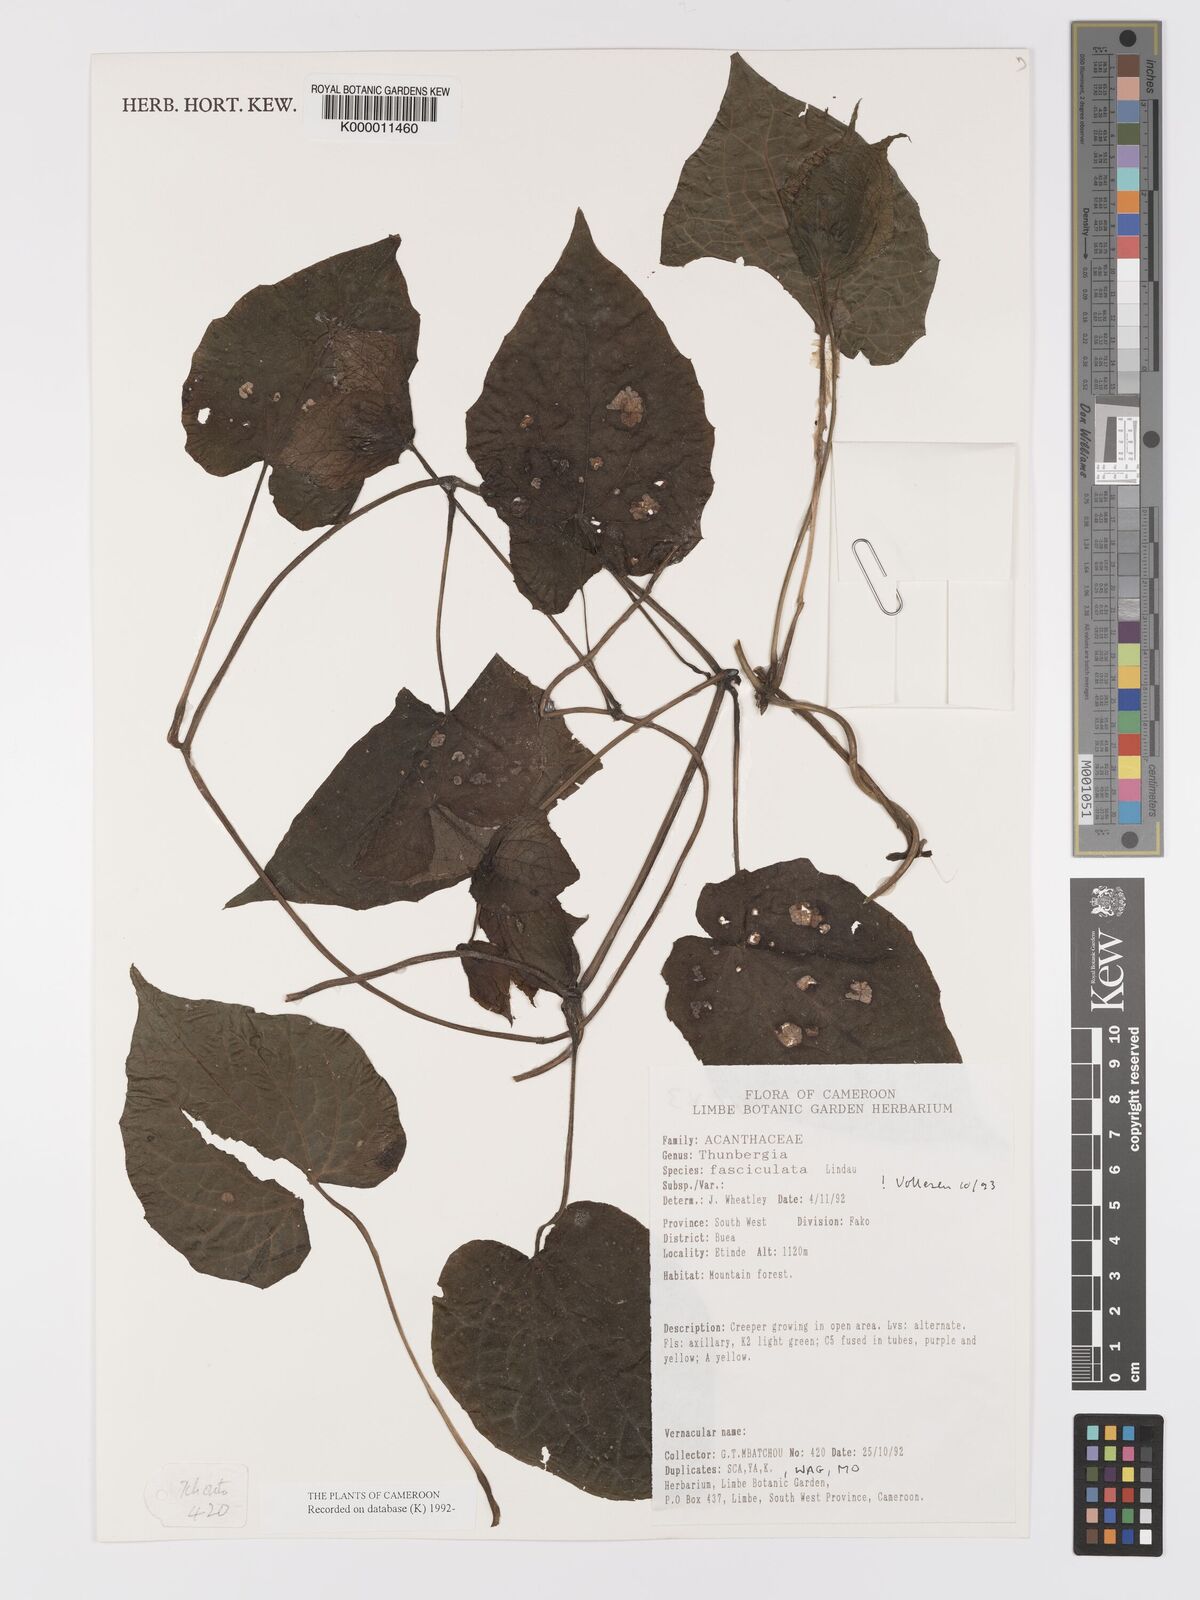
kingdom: Plantae
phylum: Tracheophyta
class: Magnoliopsida
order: Lamiales
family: Acanthaceae
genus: Thunbergia
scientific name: Thunbergia fasciculata
